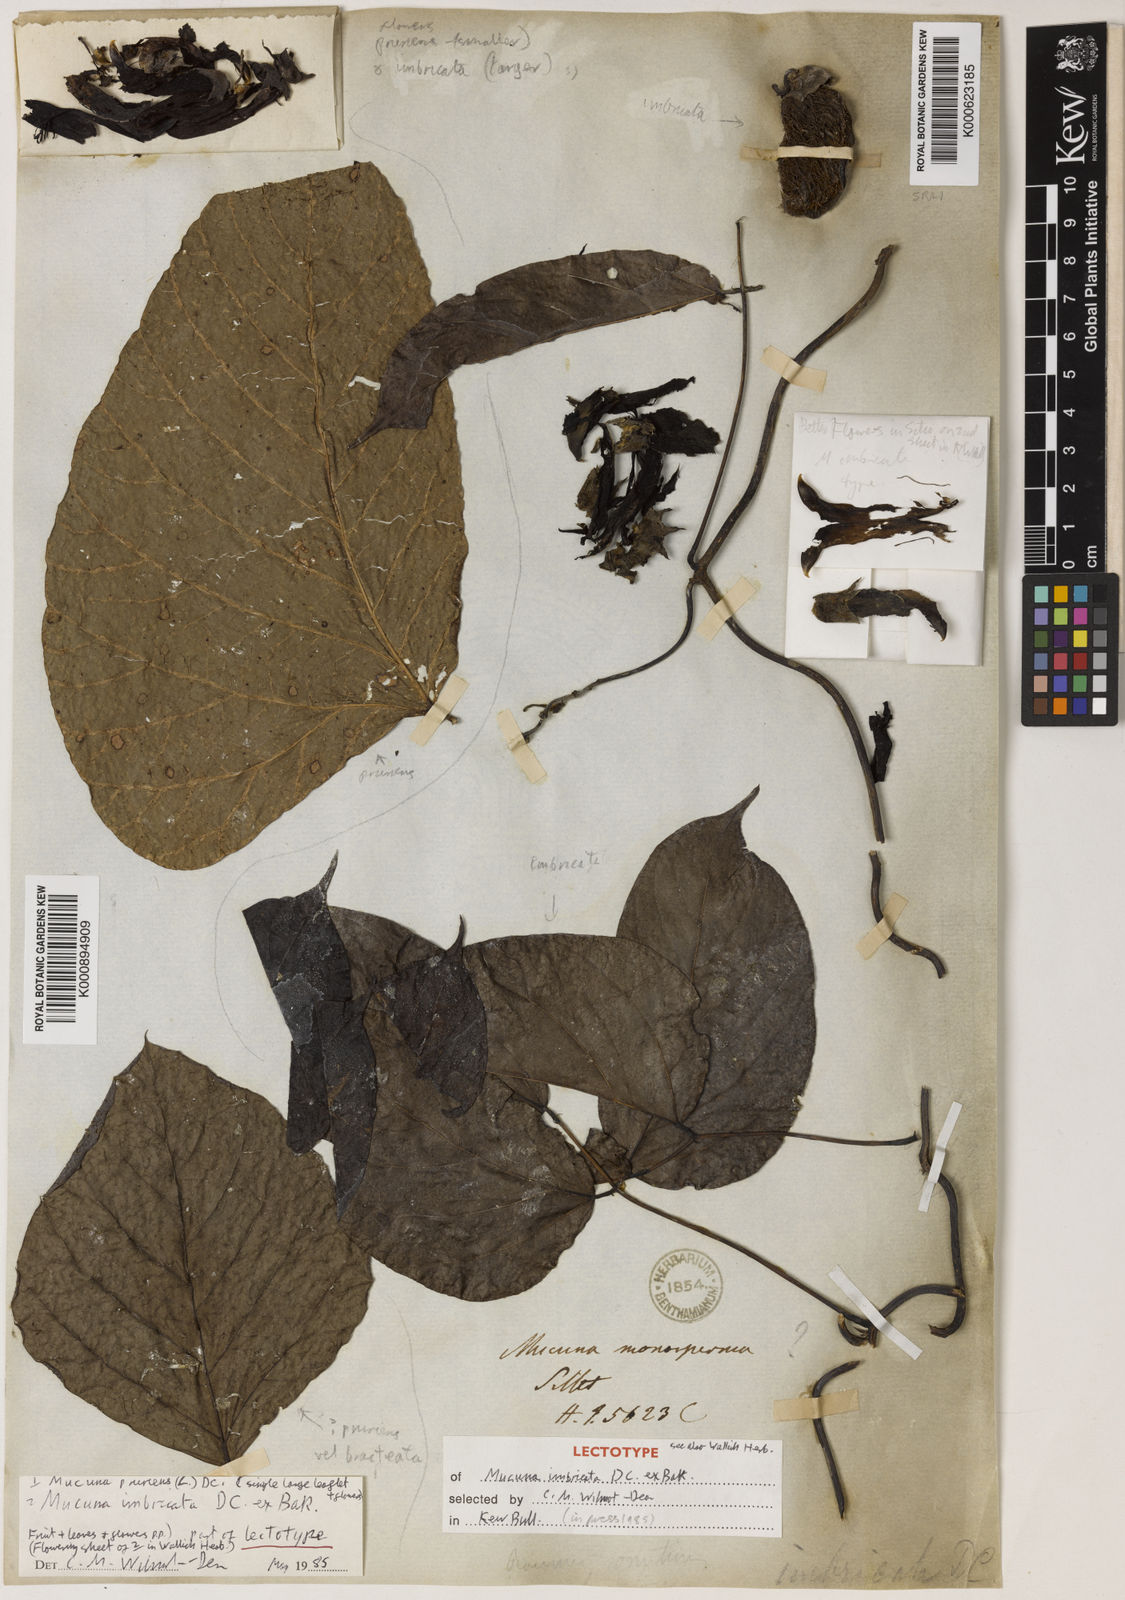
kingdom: Plantae
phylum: Tracheophyta
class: Magnoliopsida
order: Fabales
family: Fabaceae
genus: Mucuna
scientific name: Mucuna imbricata
